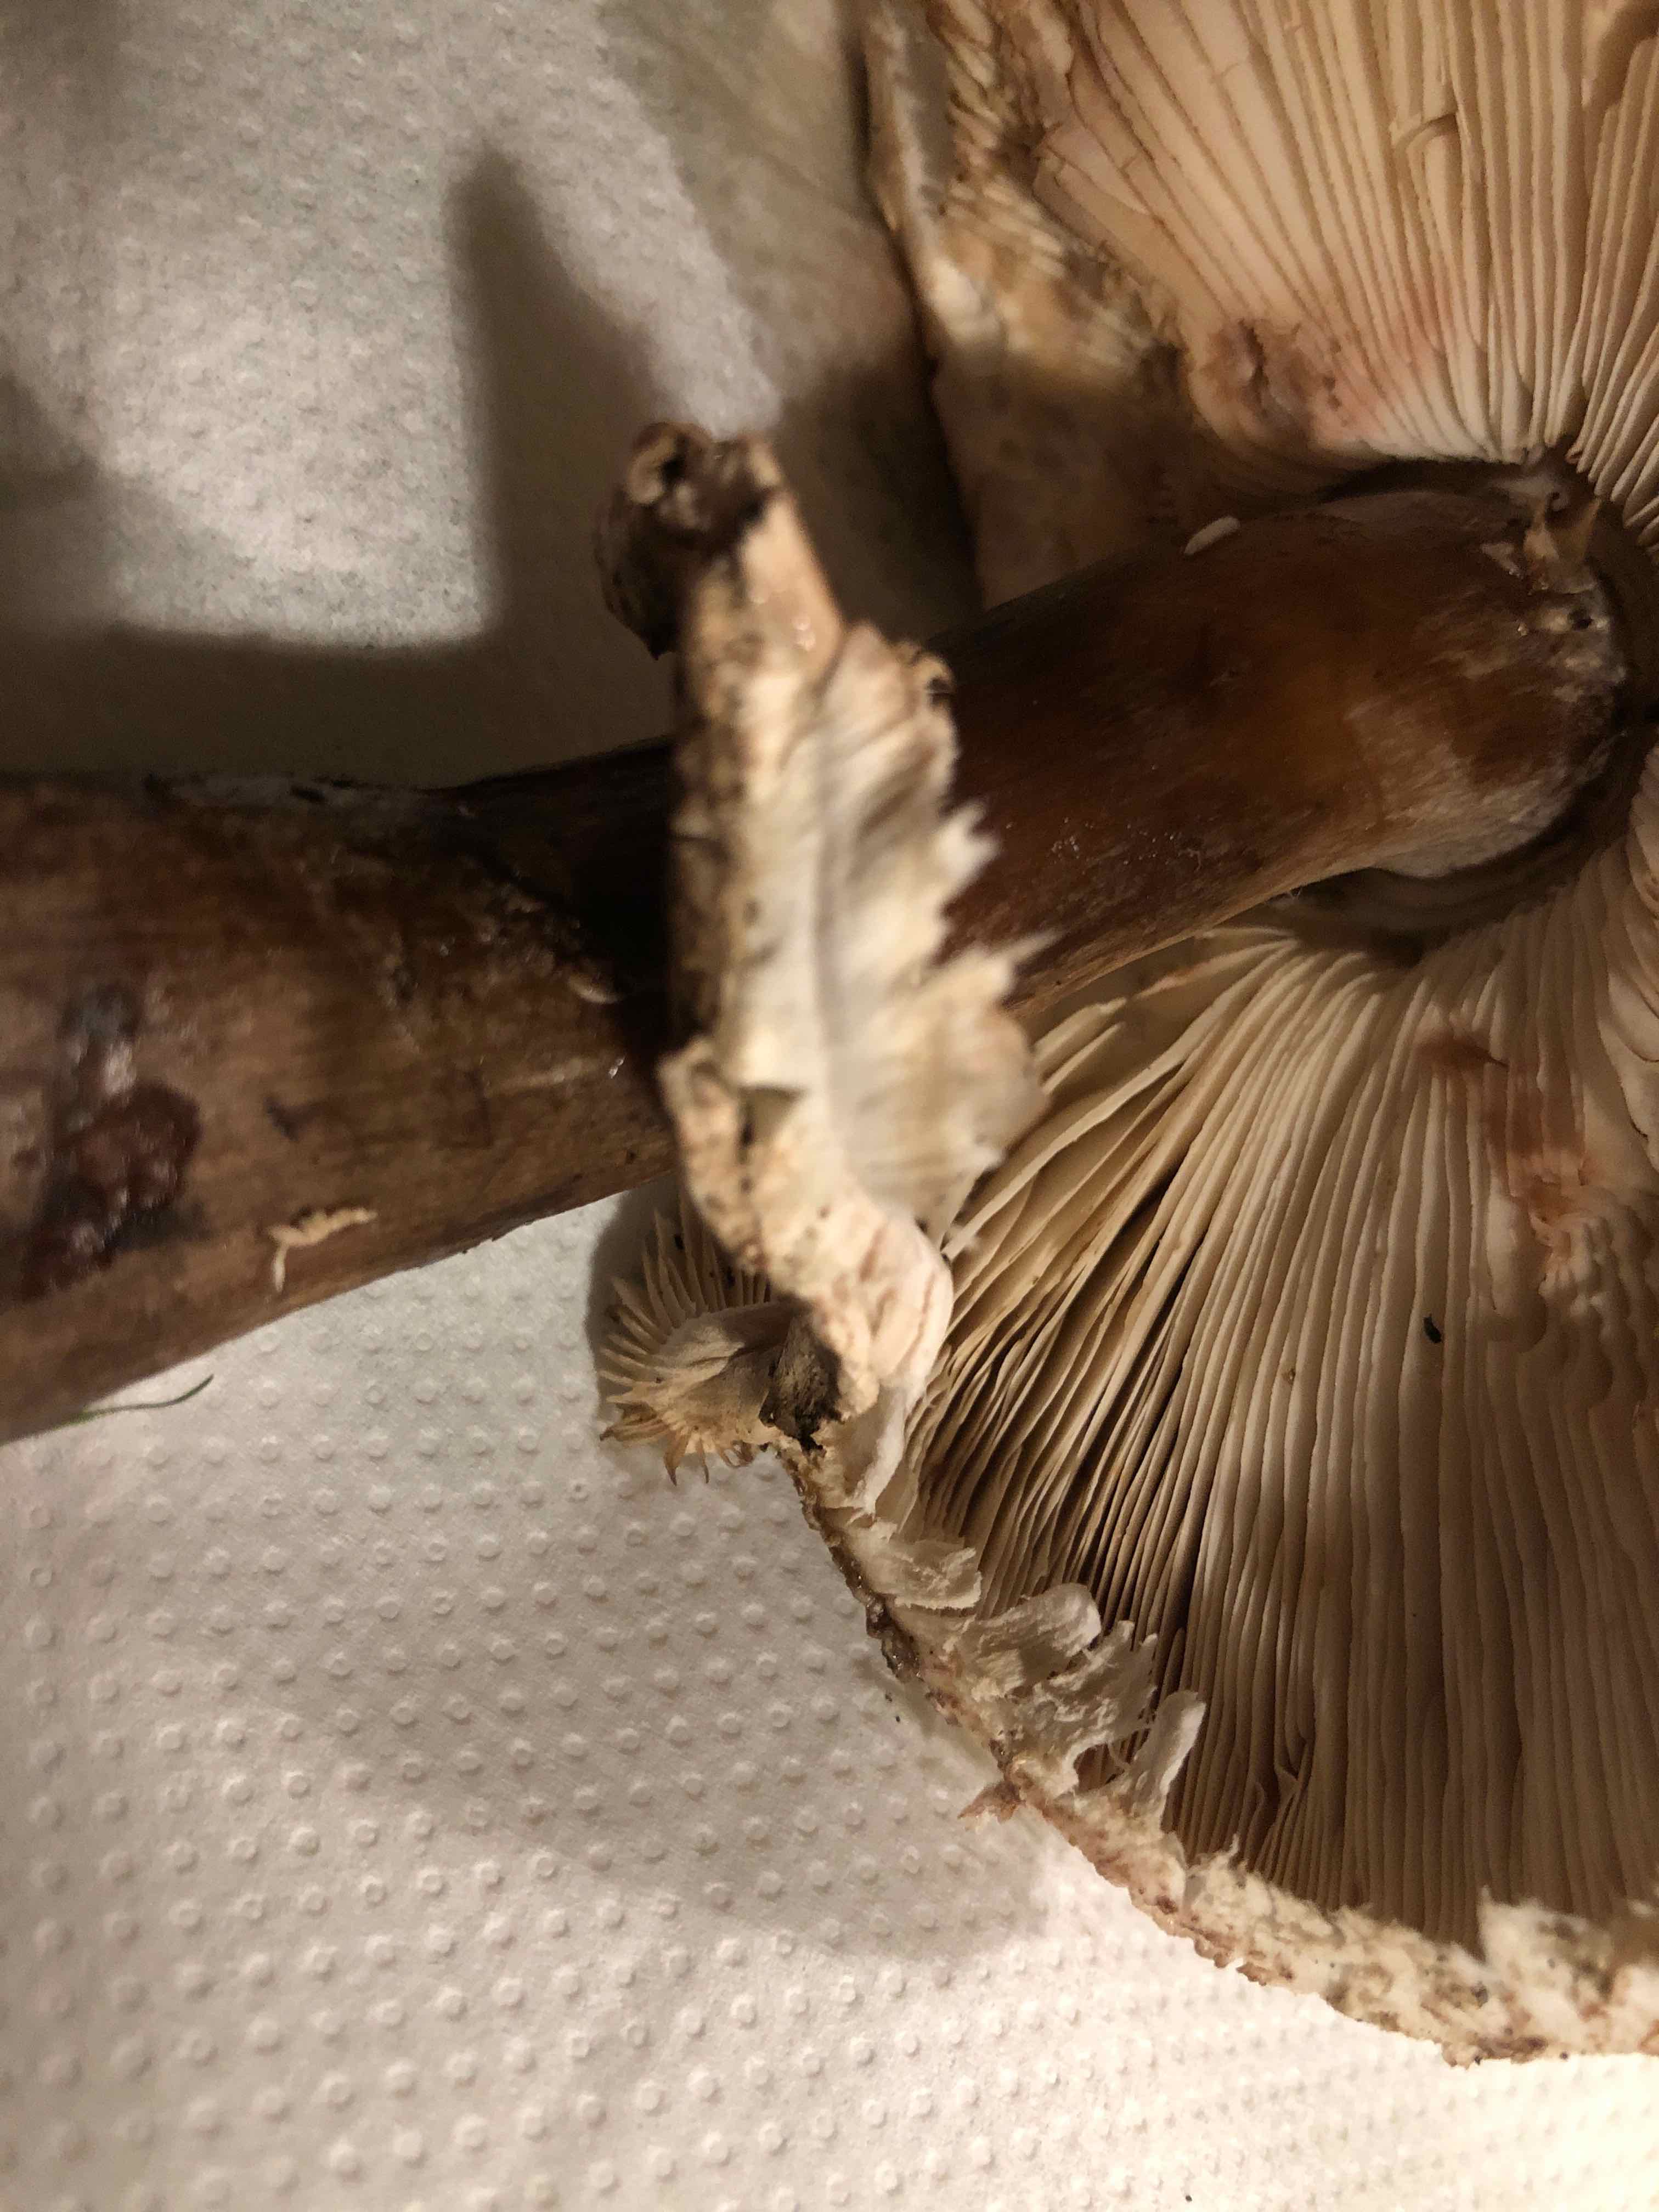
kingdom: Fungi
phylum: Basidiomycota
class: Agaricomycetes
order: Agaricales
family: Agaricaceae
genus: Chlorophyllum
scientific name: Chlorophyllum rhacodes
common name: ægte rabarberhat
